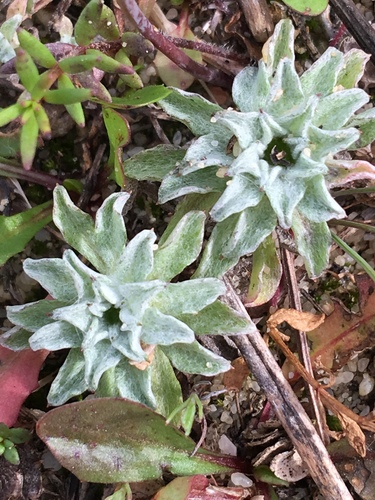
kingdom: Plantae
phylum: Tracheophyta
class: Magnoliopsida
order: Asterales
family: Asteraceae
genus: Filago
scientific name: Filago carpetana
